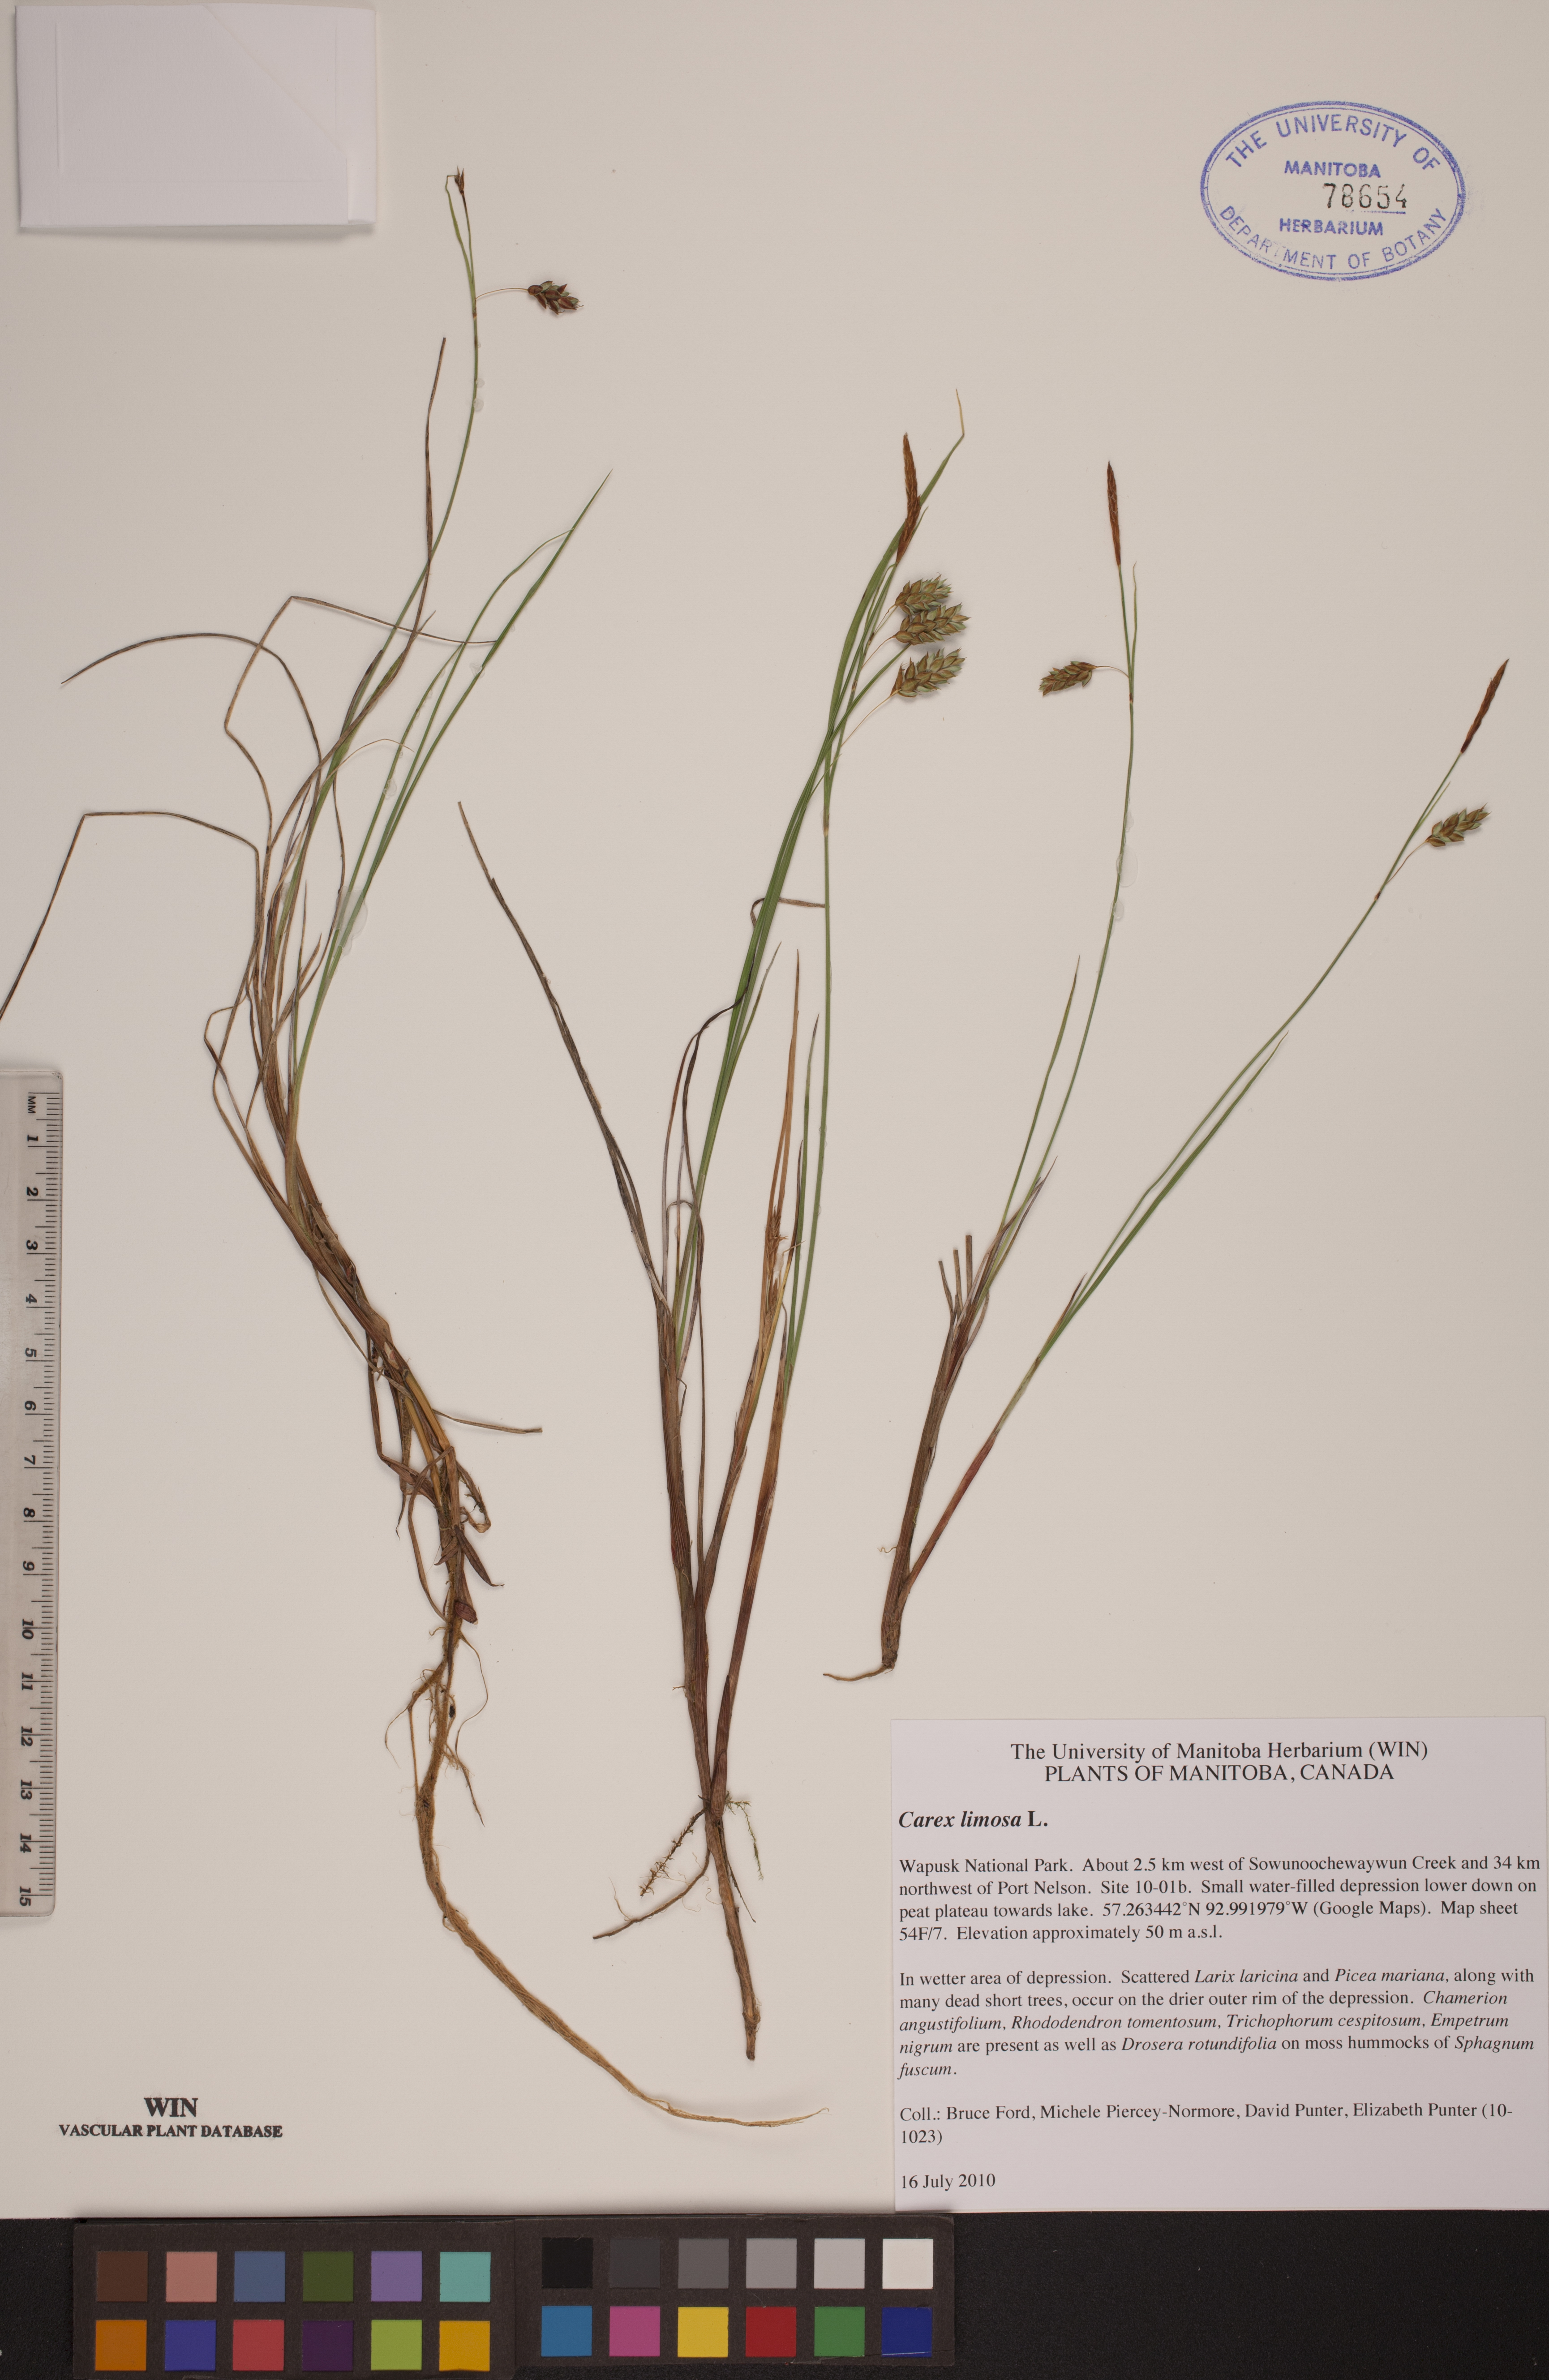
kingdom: Plantae
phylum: Tracheophyta
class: Liliopsida
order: Poales
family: Cyperaceae
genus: Carex
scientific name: Carex limosa
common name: Bog sedge
